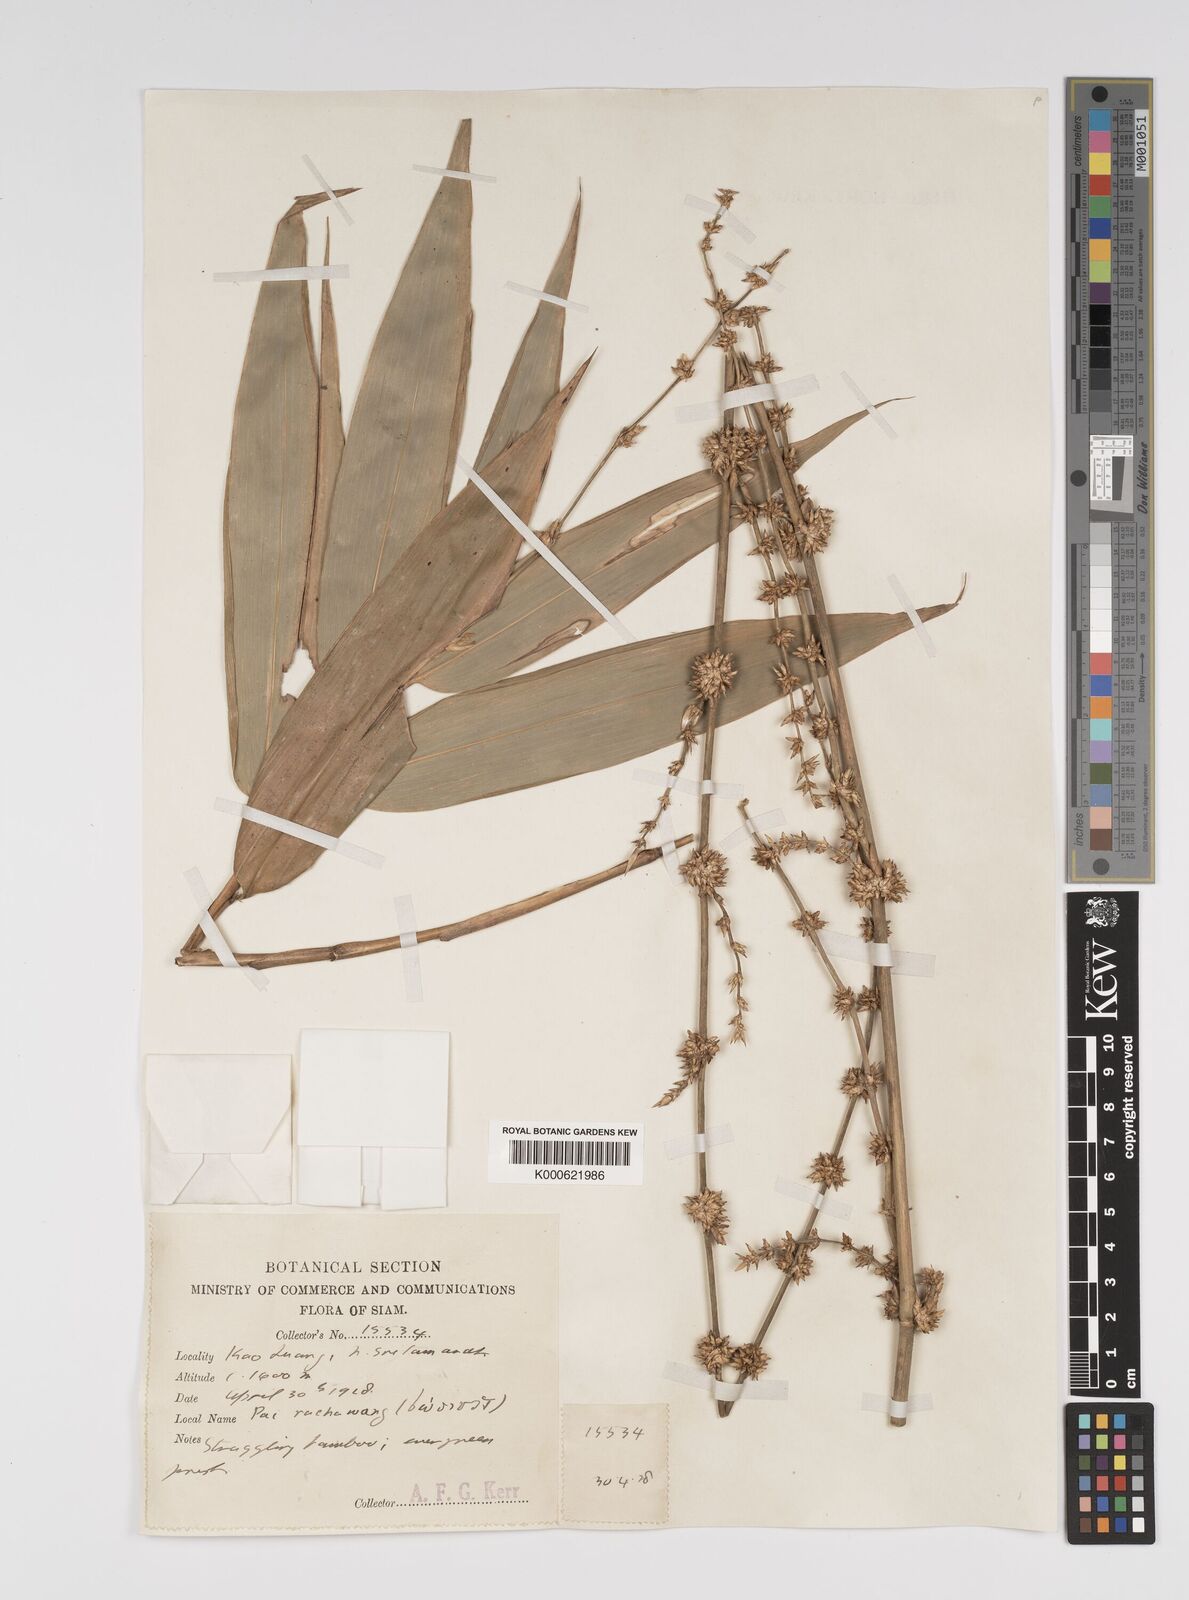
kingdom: Plantae
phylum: Tracheophyta
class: Liliopsida
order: Poales
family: Poaceae
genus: Bambusa
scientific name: Bambusa
